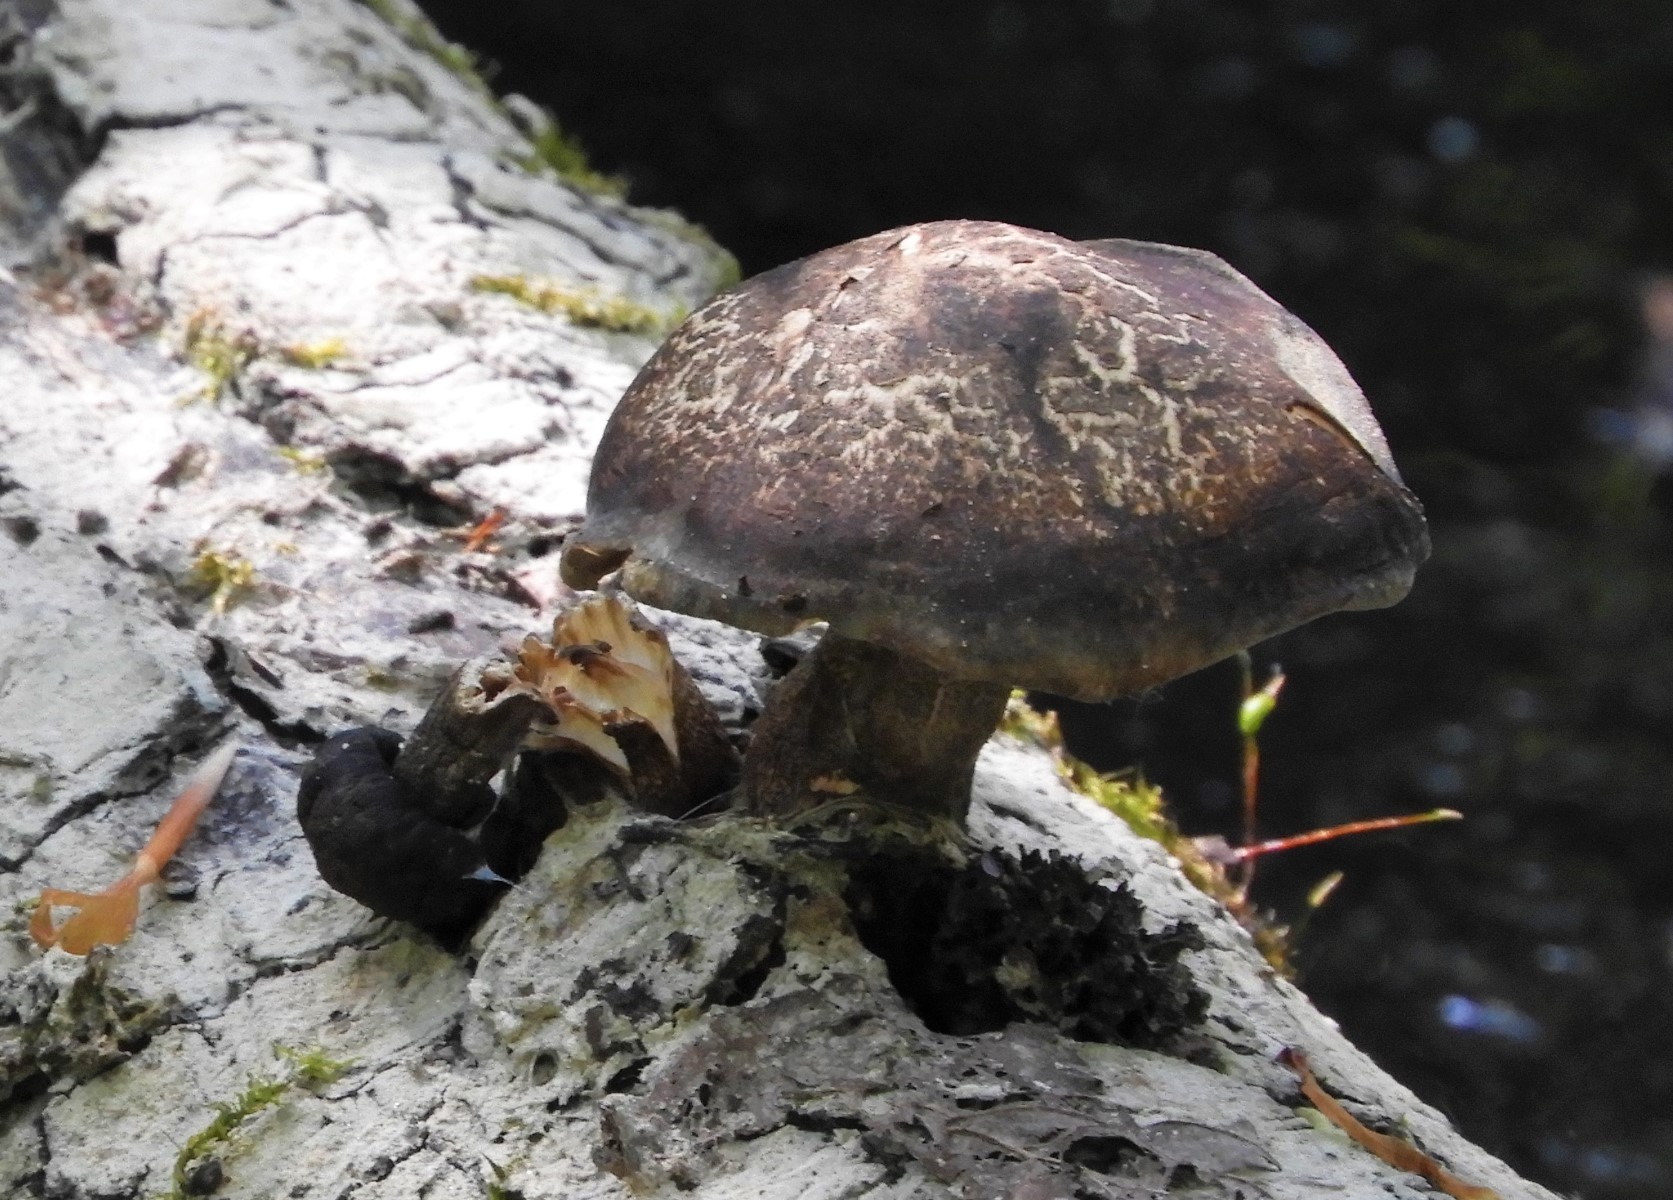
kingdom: Fungi
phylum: Basidiomycota
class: Agaricomycetes
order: Polyporales
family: Polyporaceae
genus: Lentinus
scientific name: Lentinus
